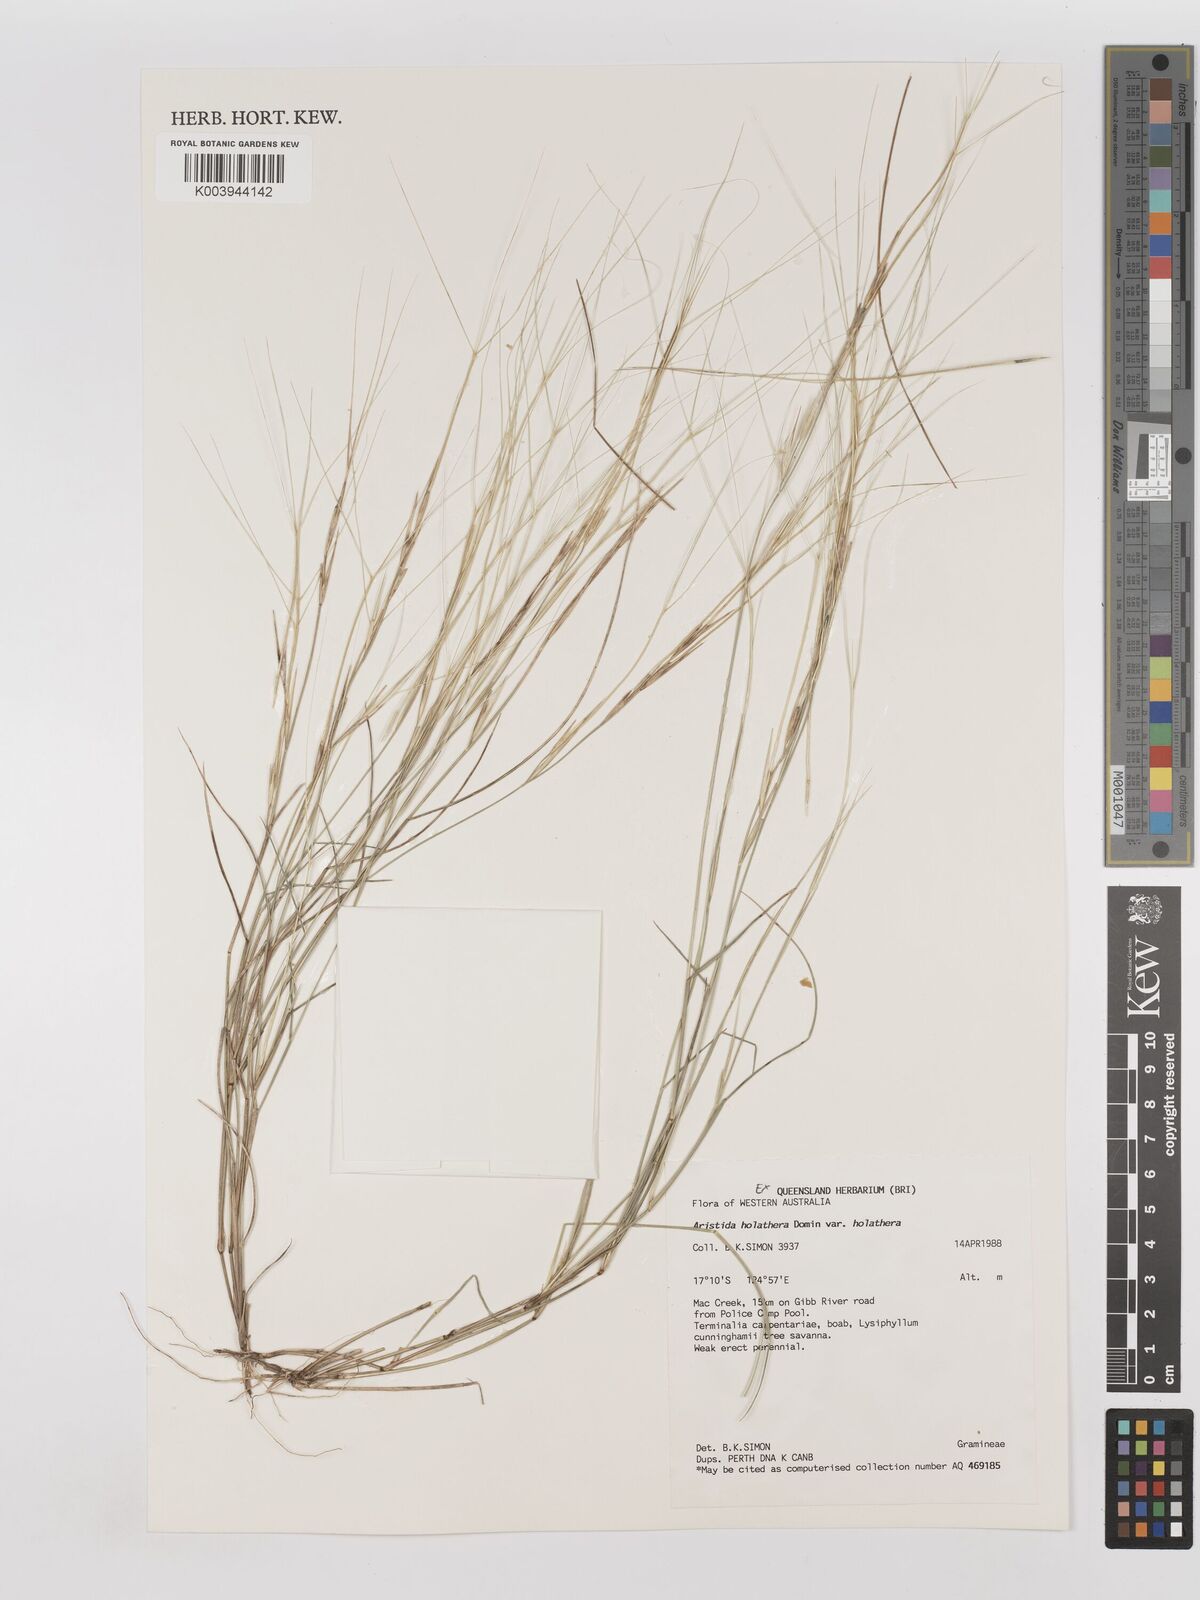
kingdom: Plantae
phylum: Tracheophyta
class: Liliopsida
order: Poales
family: Poaceae
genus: Aristida
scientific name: Aristida holathera
